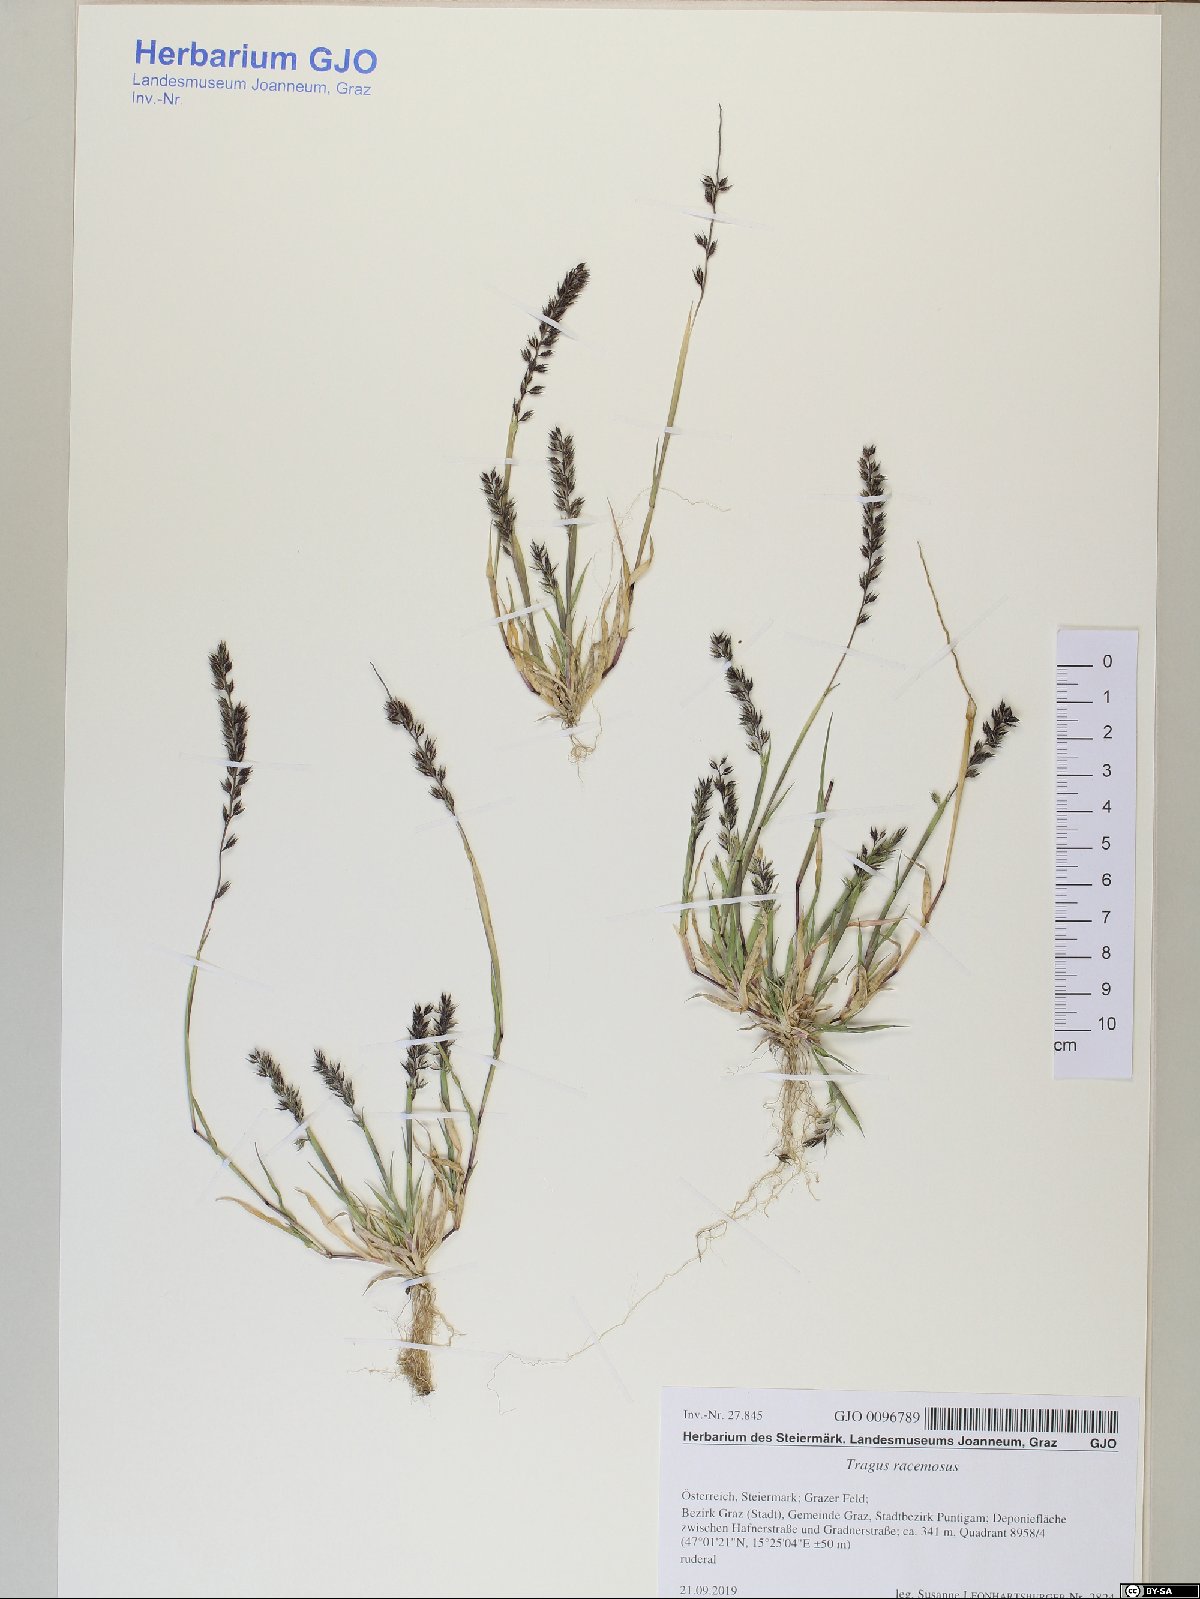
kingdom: Plantae
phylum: Tracheophyta
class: Liliopsida
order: Poales
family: Poaceae
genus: Tragus
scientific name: Tragus racemosus
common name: European bur-grass
